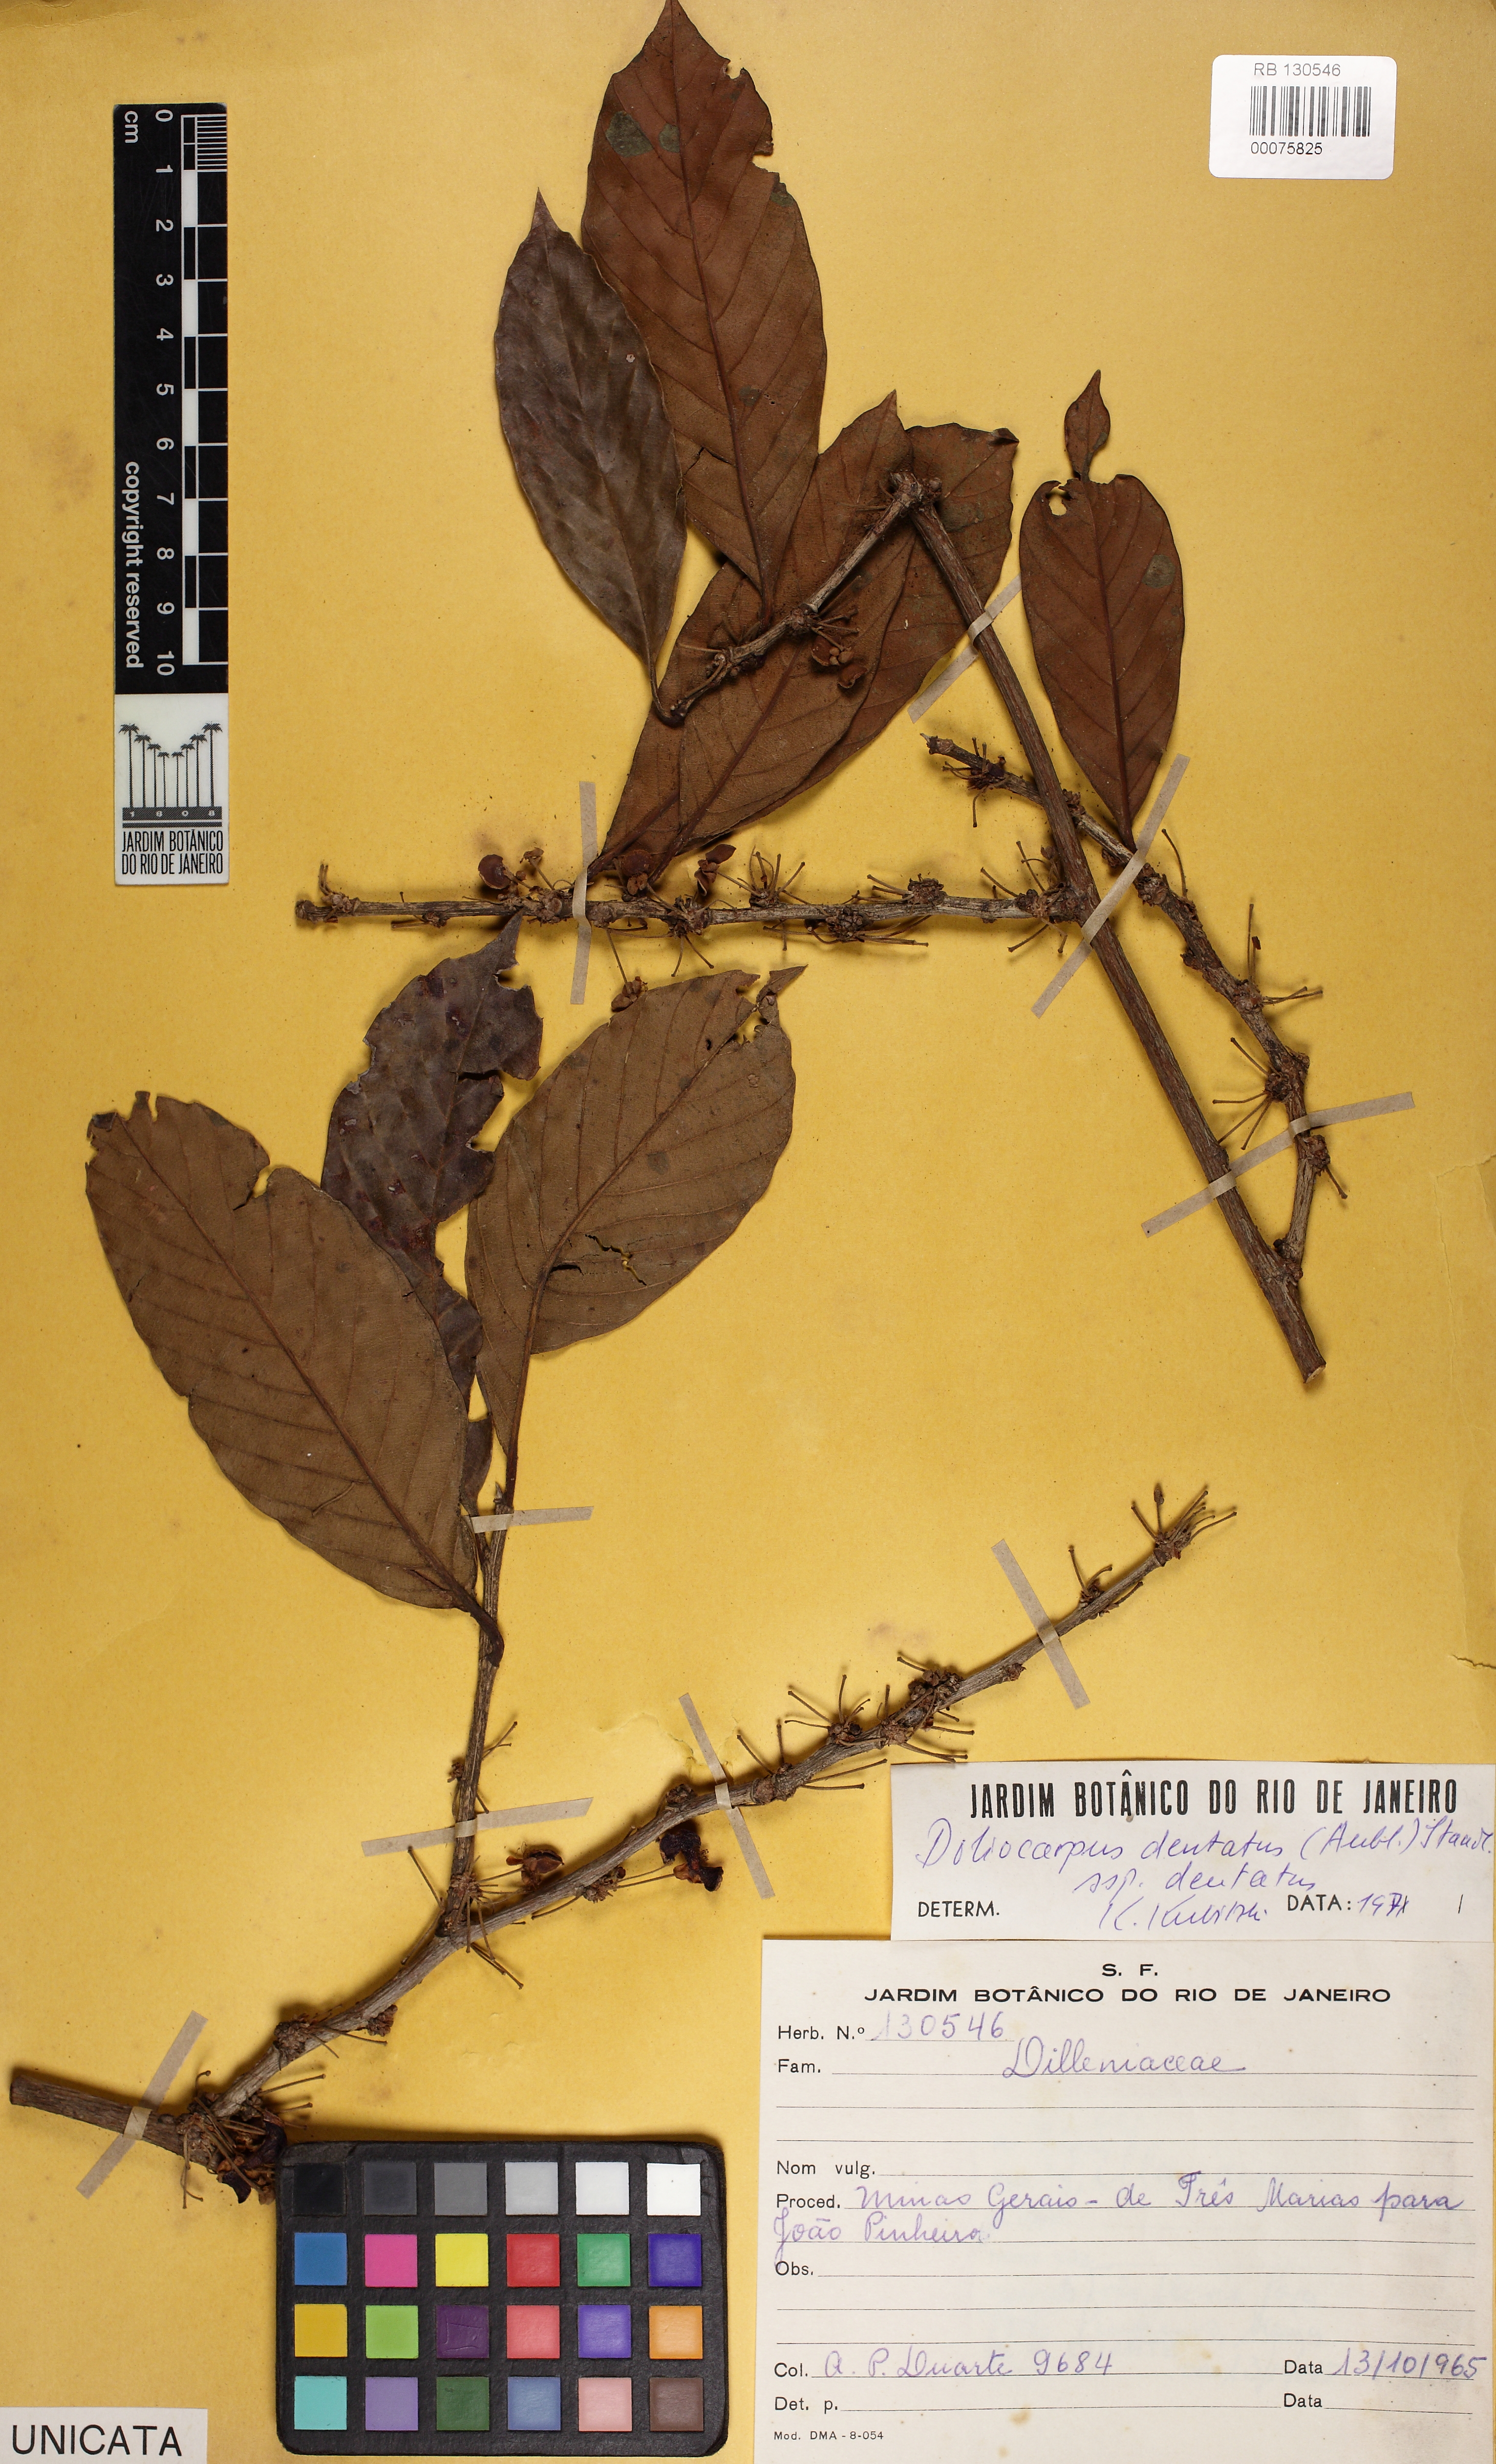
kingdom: Plantae
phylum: Tracheophyta
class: Magnoliopsida
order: Dilleniales
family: Dilleniaceae
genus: Doliocarpus
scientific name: Doliocarpus dentatus
